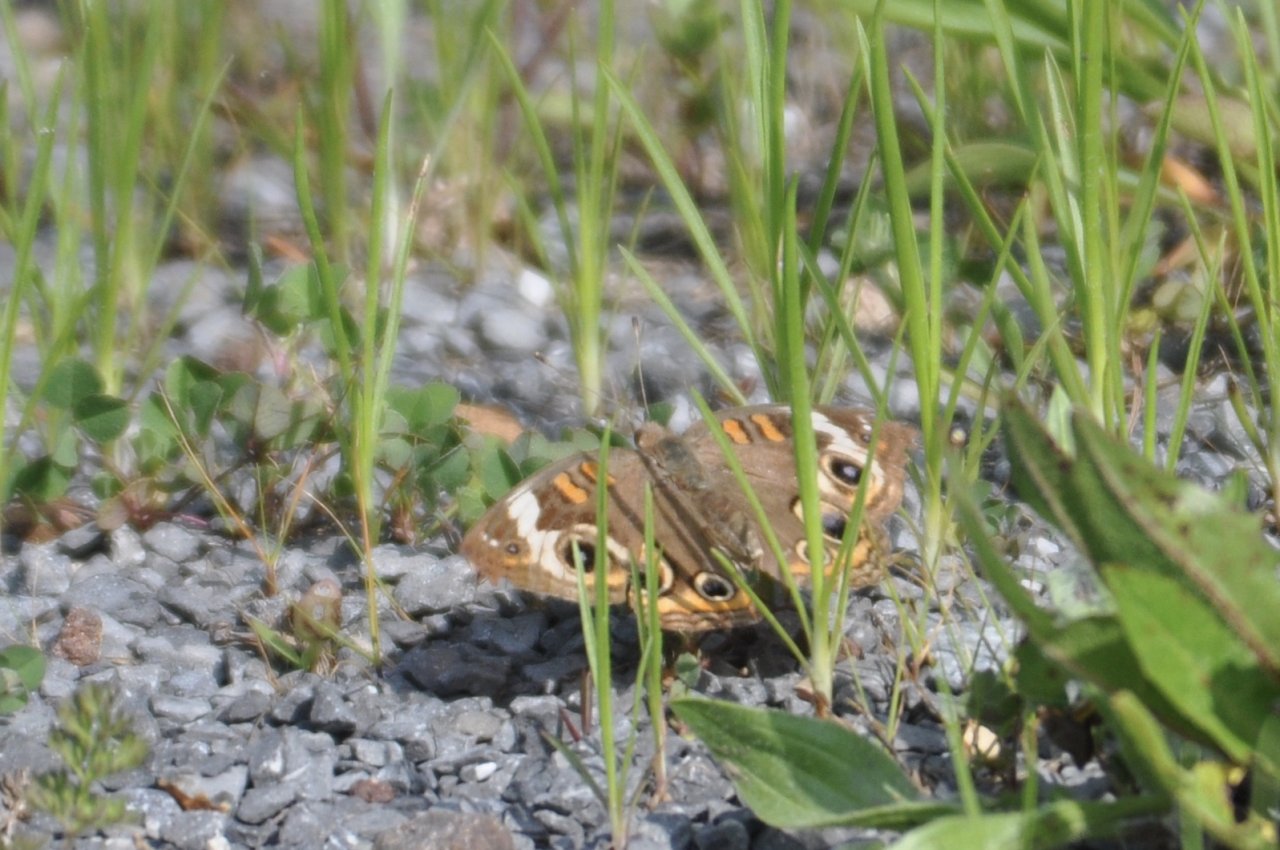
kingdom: Animalia
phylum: Arthropoda
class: Insecta
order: Lepidoptera
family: Nymphalidae
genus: Junonia
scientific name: Junonia coenia
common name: Common Buckeye
